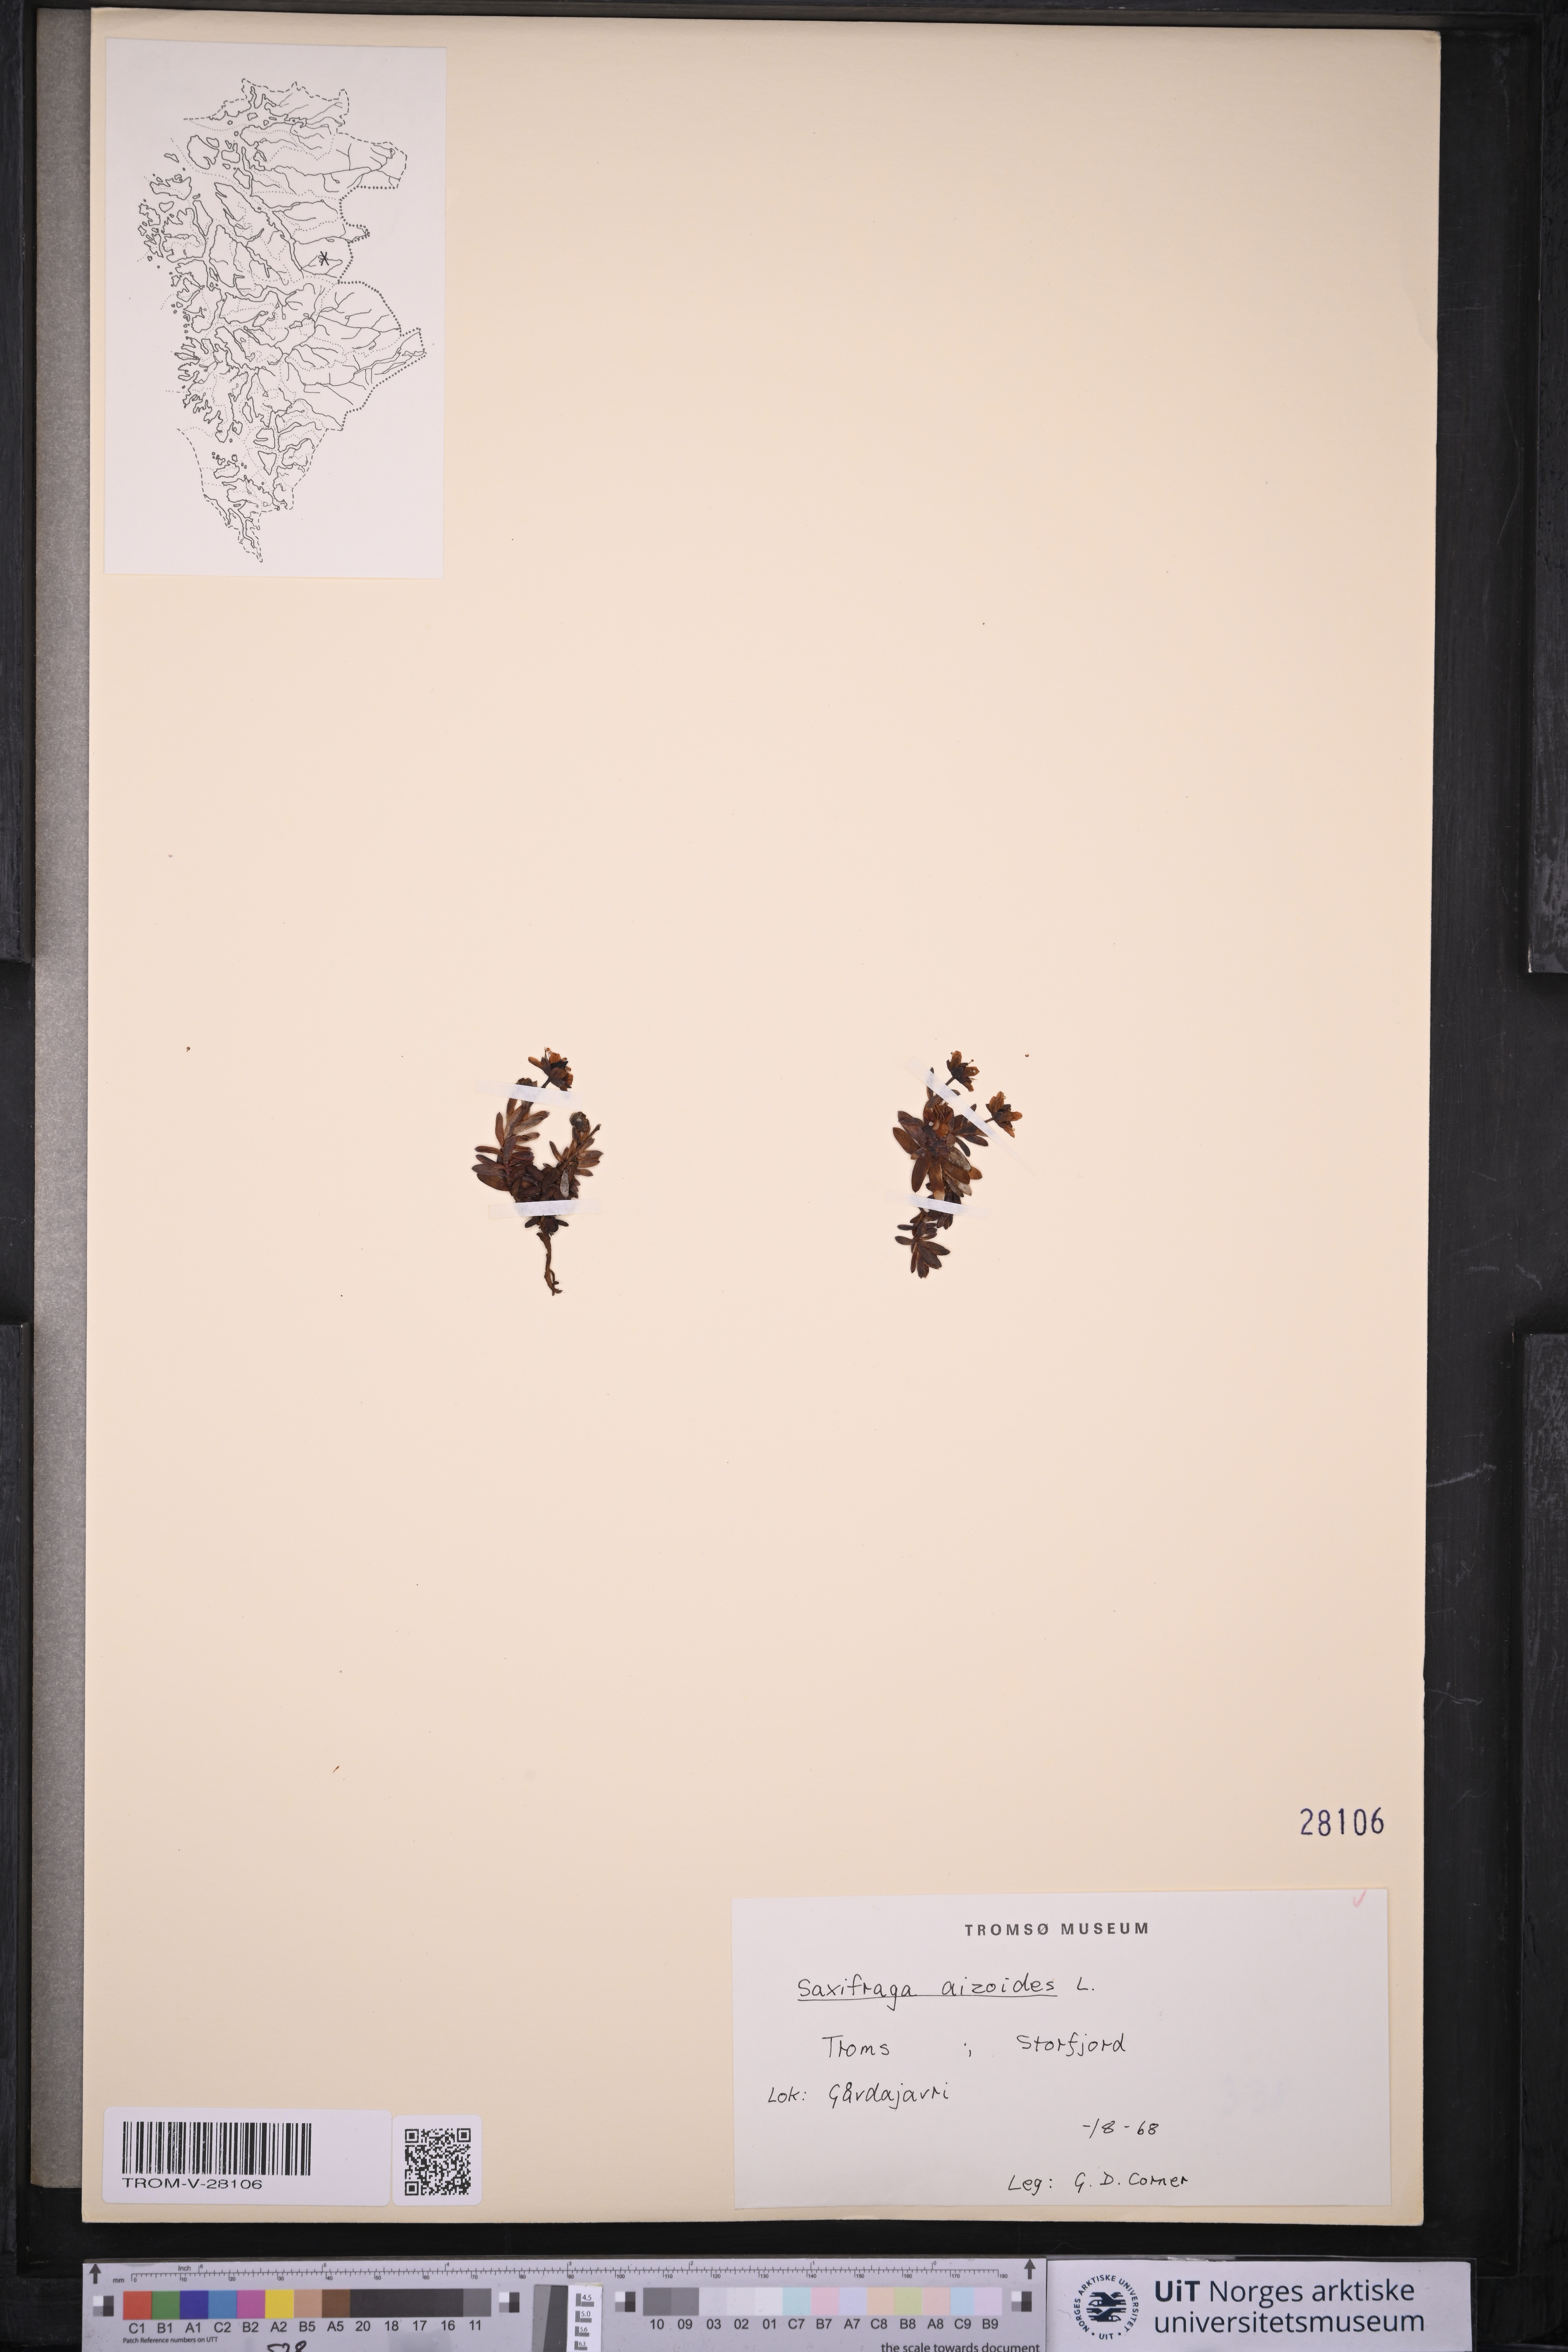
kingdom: Plantae
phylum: Tracheophyta
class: Magnoliopsida
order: Saxifragales
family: Saxifragaceae
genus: Saxifraga
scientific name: Saxifraga aizoides
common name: Yellow mountain saxifrage
